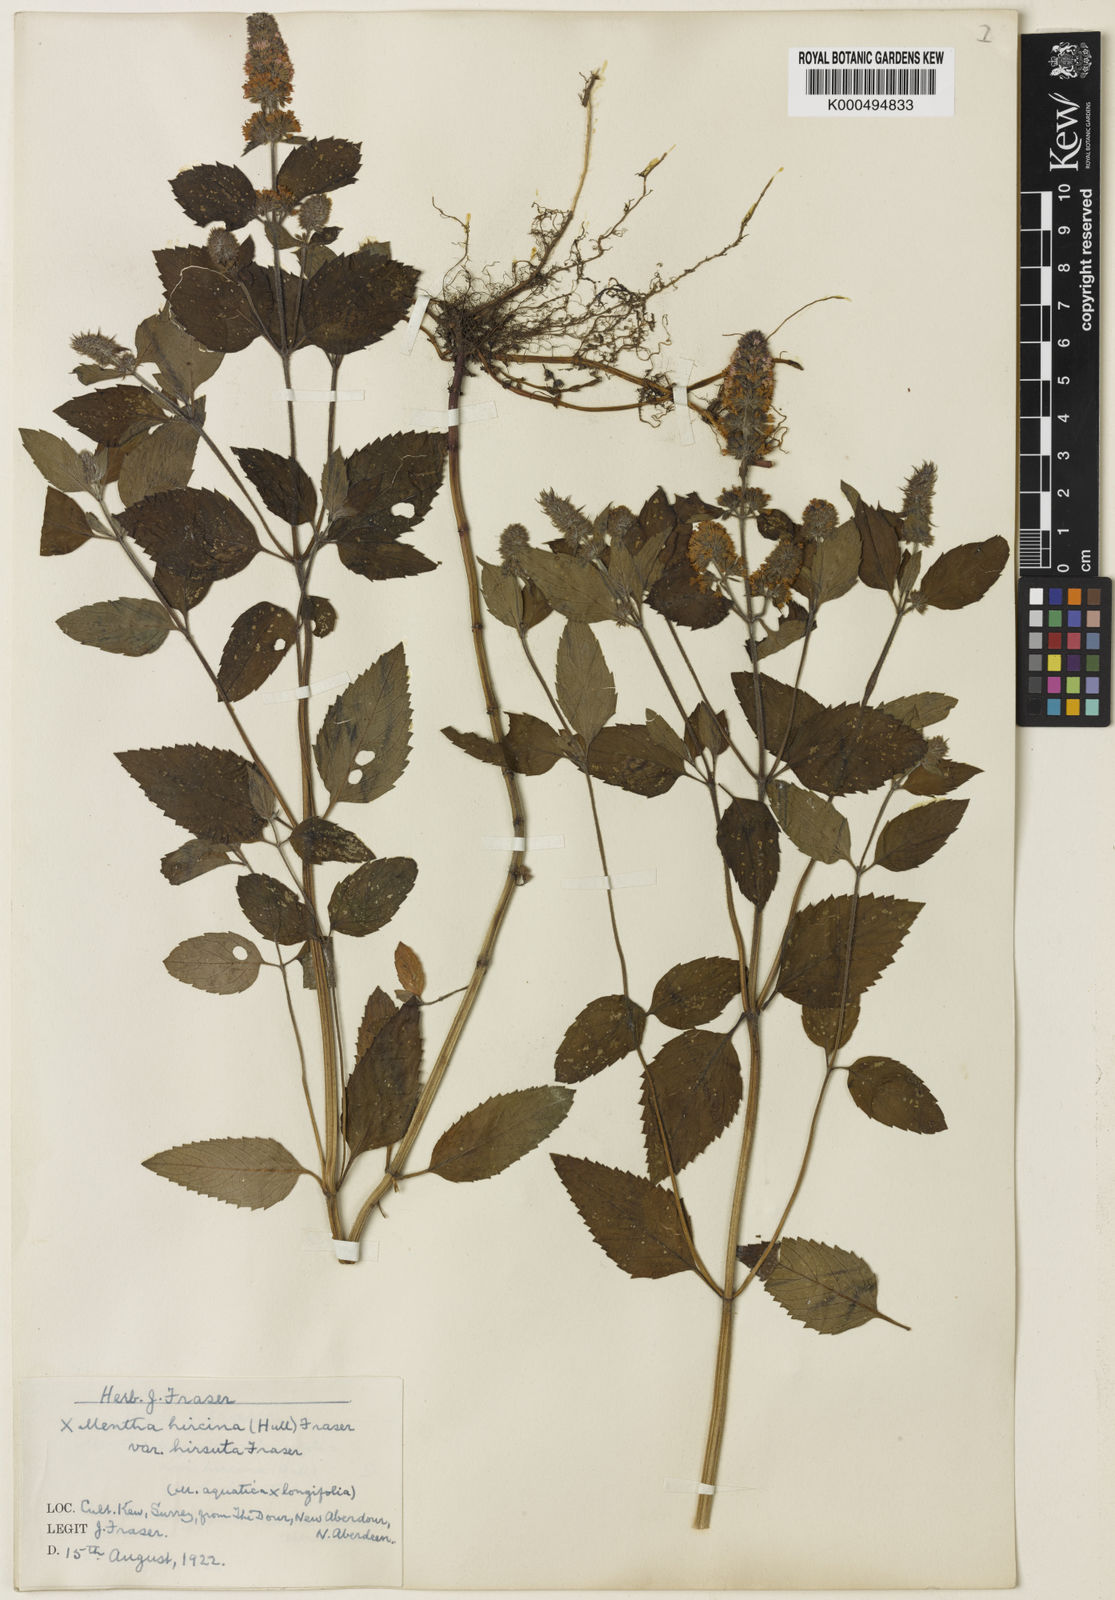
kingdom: Plantae
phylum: Tracheophyta
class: Magnoliopsida
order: Lamiales
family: Lamiaceae
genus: Mentha
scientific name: Mentha piperita
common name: Peppermint
